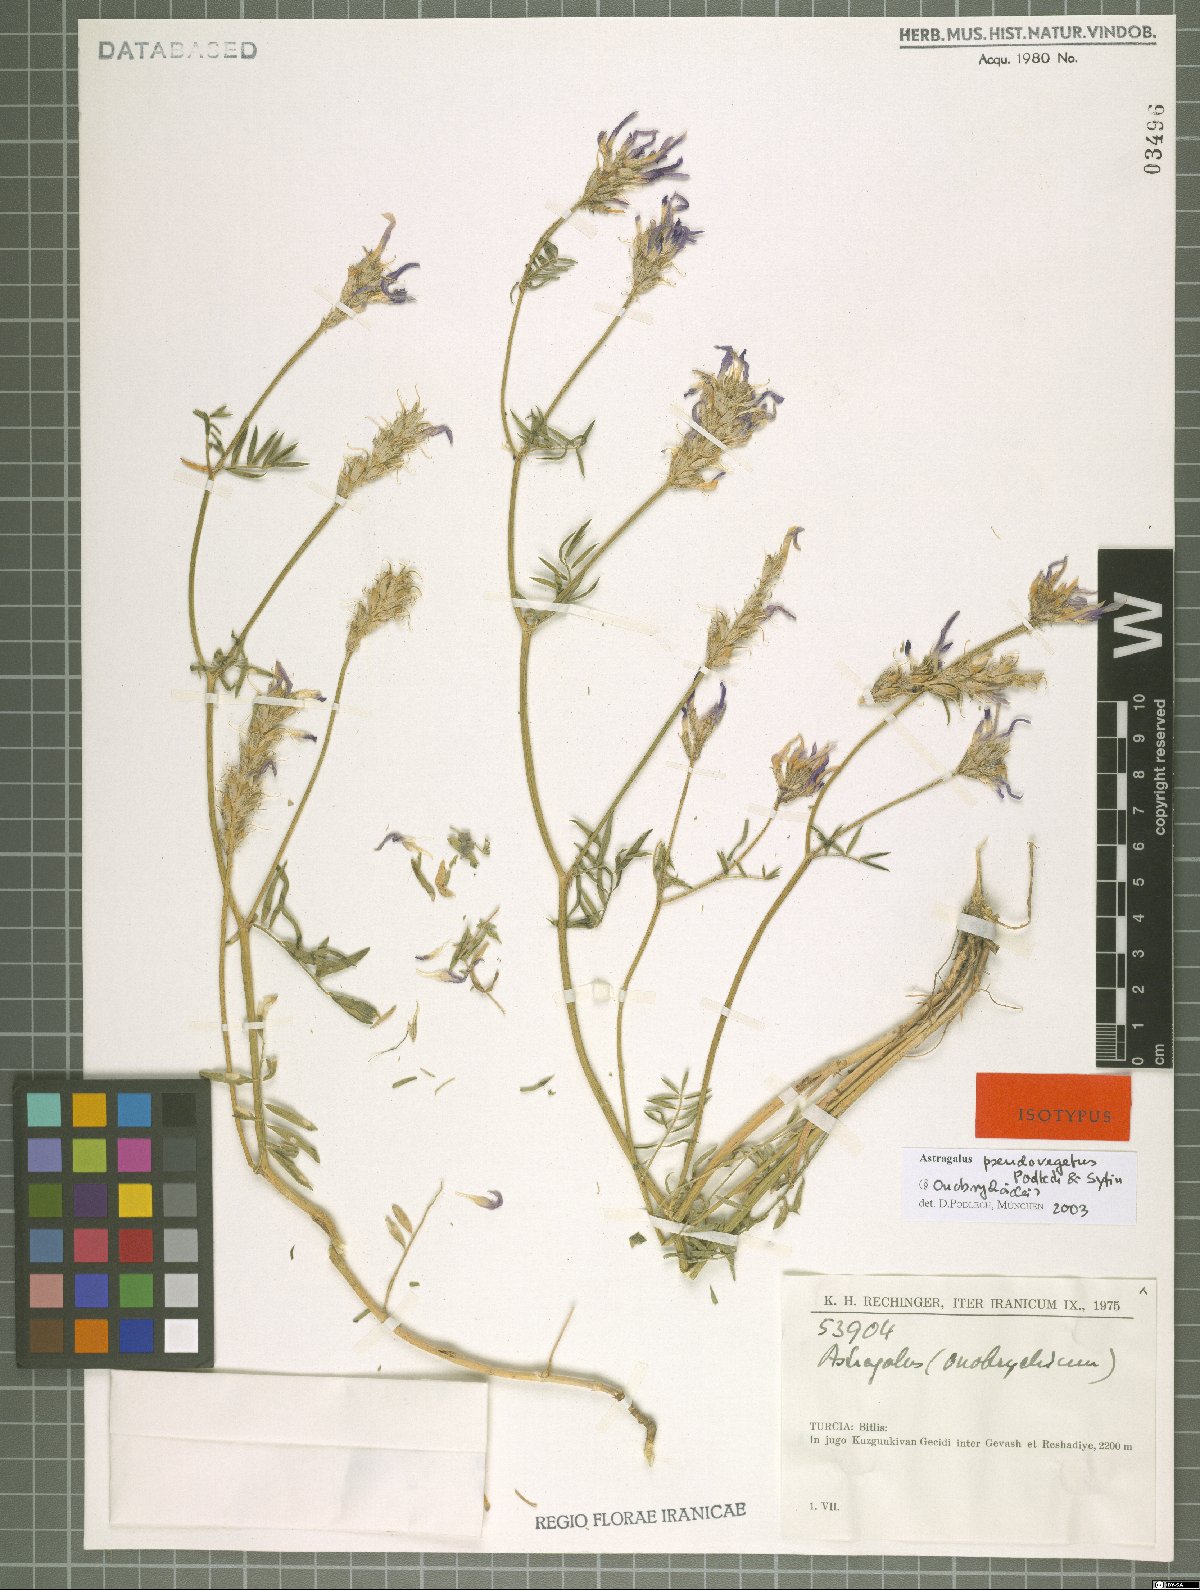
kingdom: Plantae
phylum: Tracheophyta
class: Magnoliopsida
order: Fabales
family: Fabaceae
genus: Astragalus
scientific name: Astragalus aduncus
